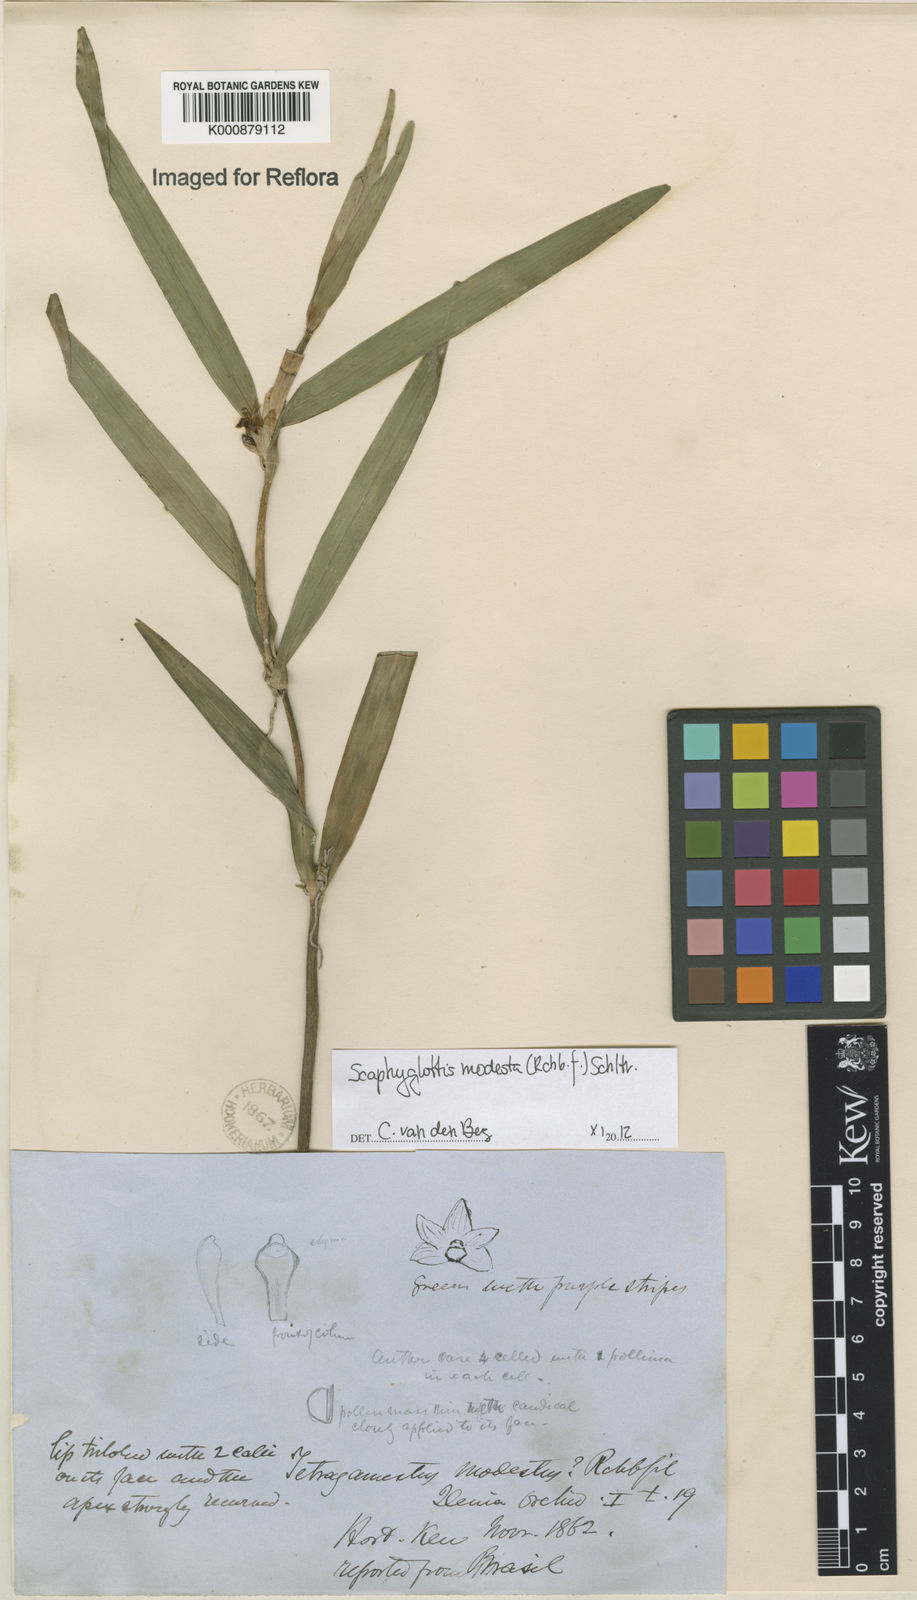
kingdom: Plantae
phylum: Tracheophyta
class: Liliopsida
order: Asparagales
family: Orchidaceae
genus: Scaphyglottis
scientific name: Scaphyglottis modesta
